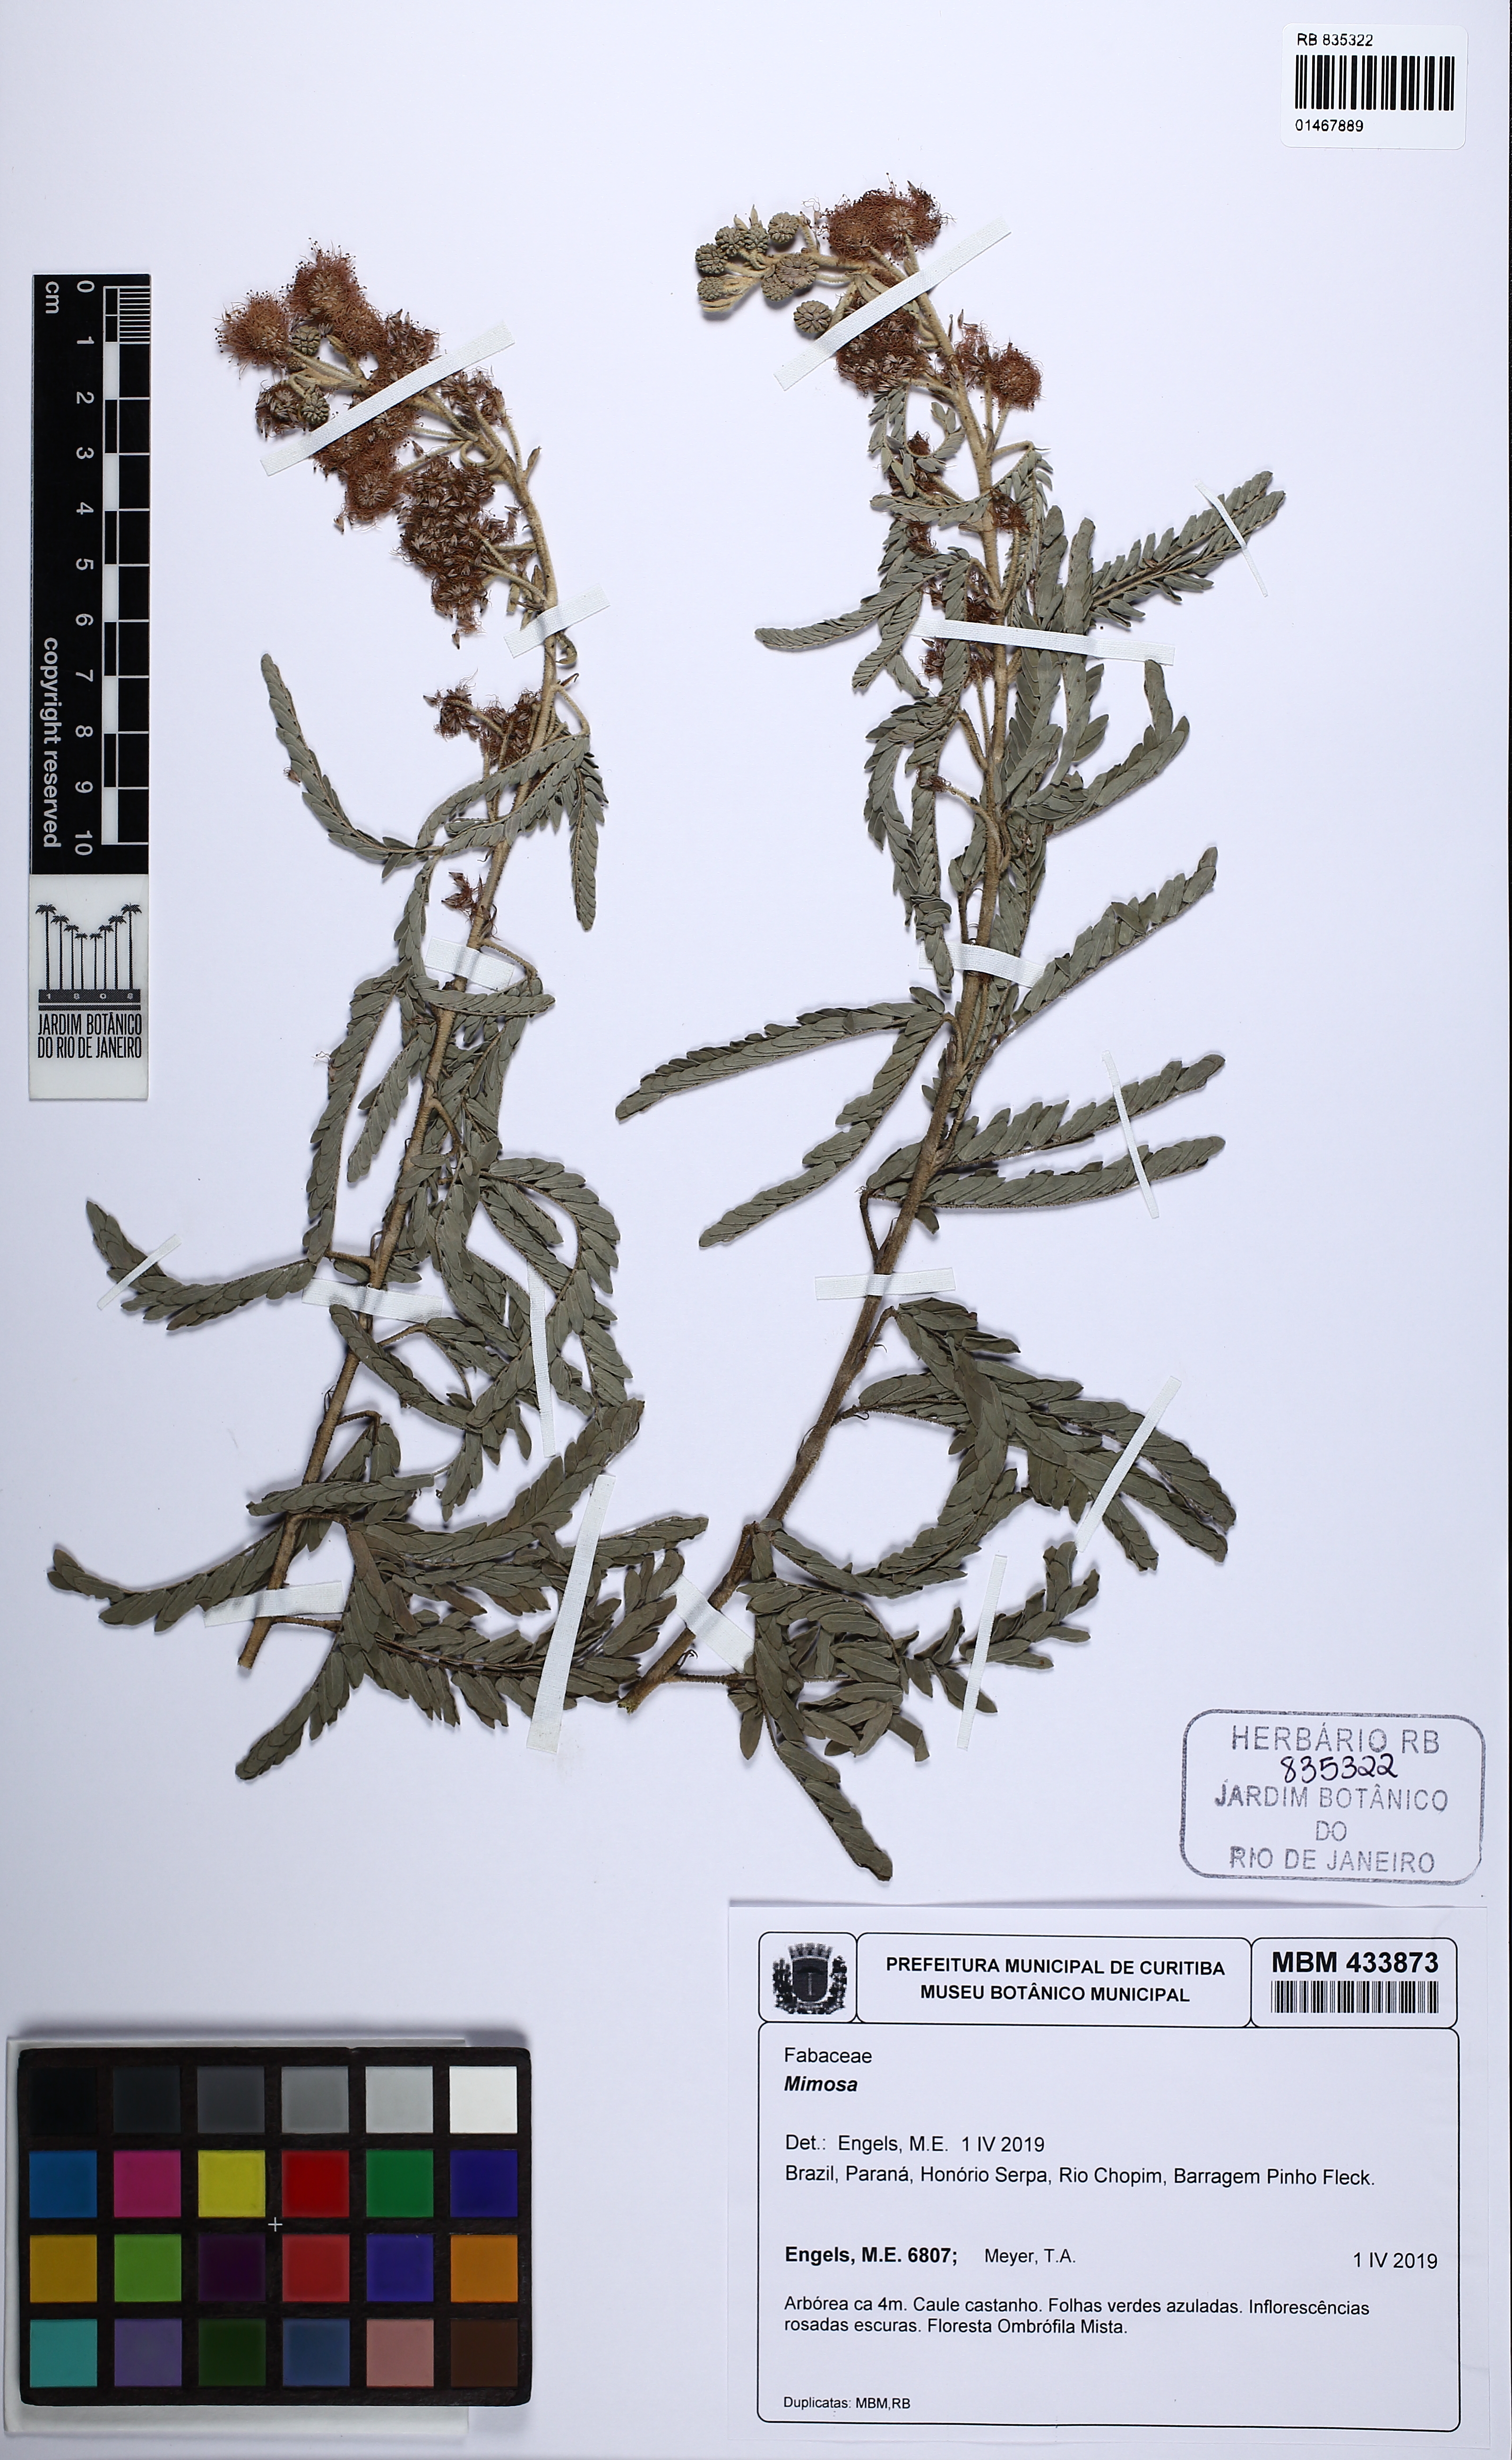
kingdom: Plantae
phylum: Tracheophyta
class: Magnoliopsida
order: Fabales
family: Fabaceae
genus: Mimosa
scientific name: Mimosa
